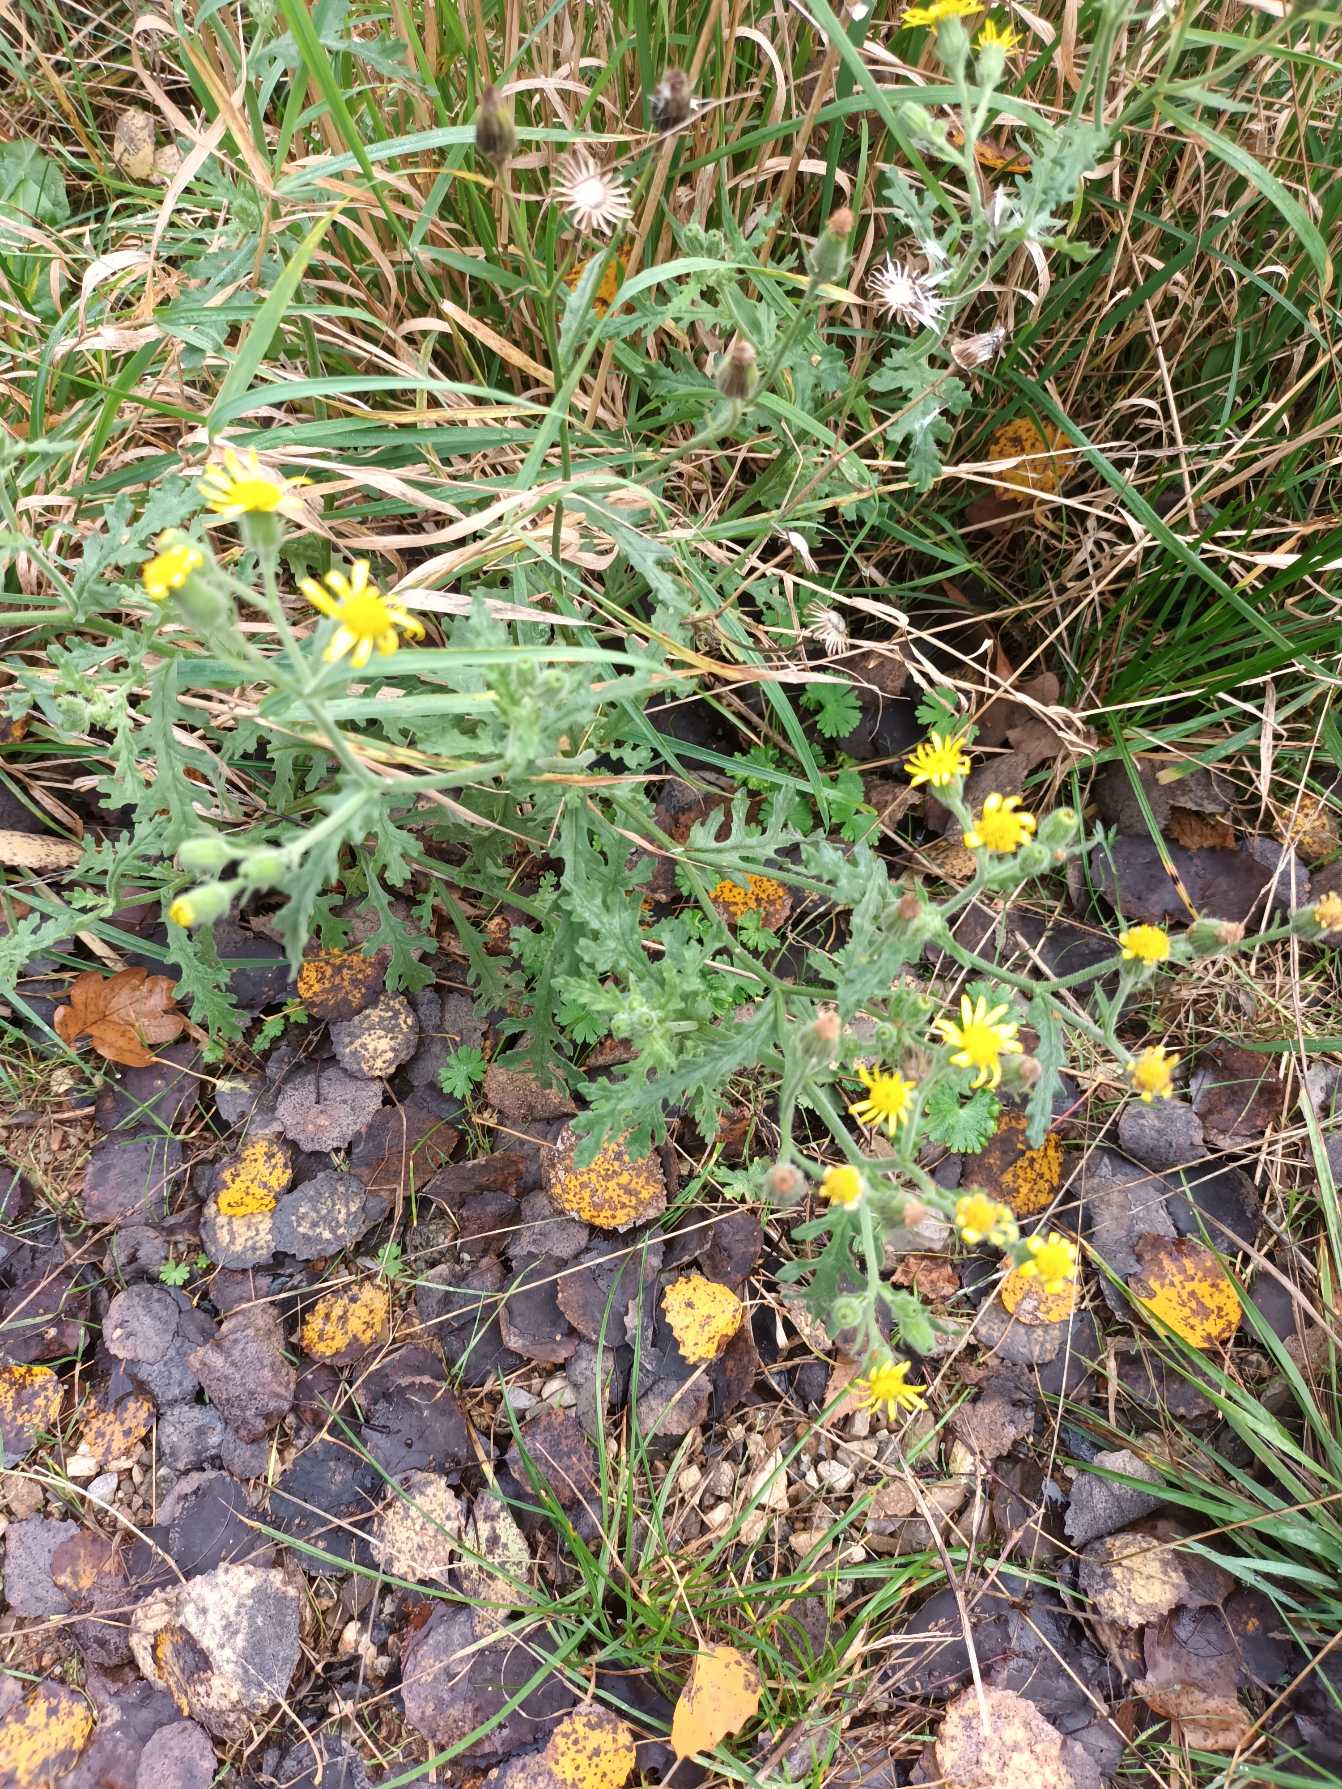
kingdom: Plantae
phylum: Tracheophyta
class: Magnoliopsida
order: Asterales
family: Asteraceae
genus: Senecio
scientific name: Senecio viscosus
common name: Klæbrig brandbæger
